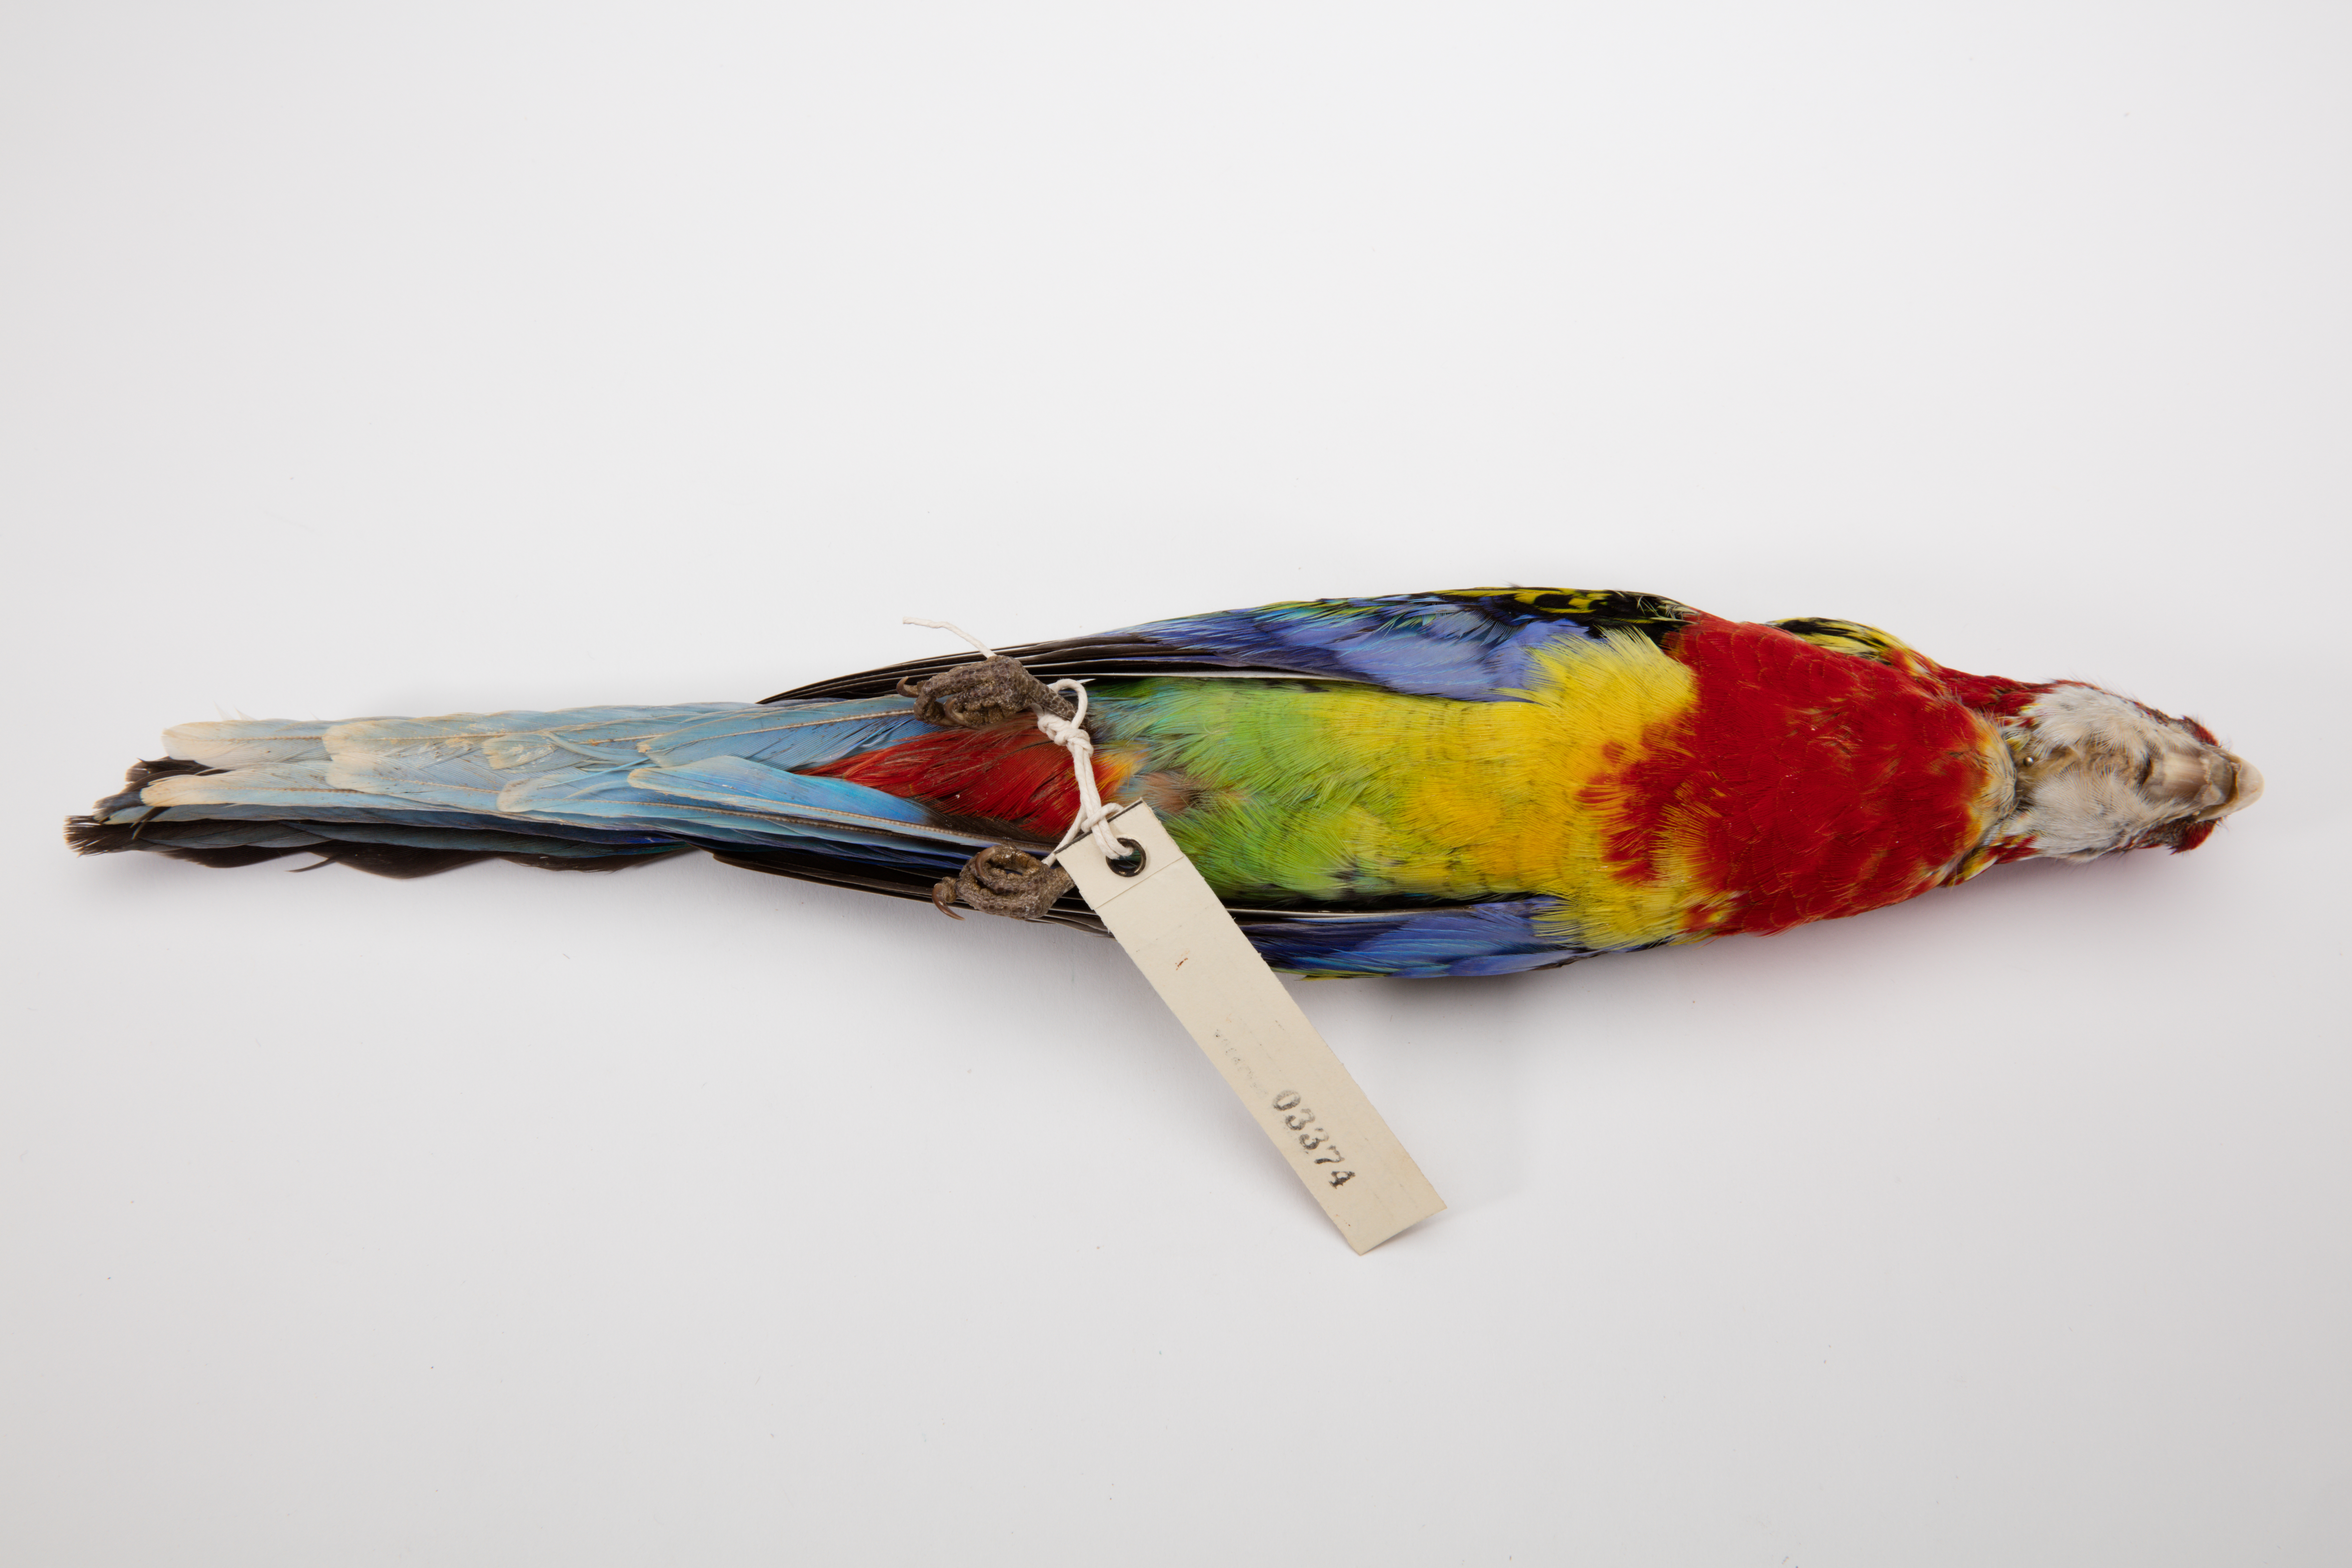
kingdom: Animalia
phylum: Chordata
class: Aves
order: Psittaciformes
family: Psittacidae
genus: Platycercus
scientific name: Platycercus eximius
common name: Eastern rosella
